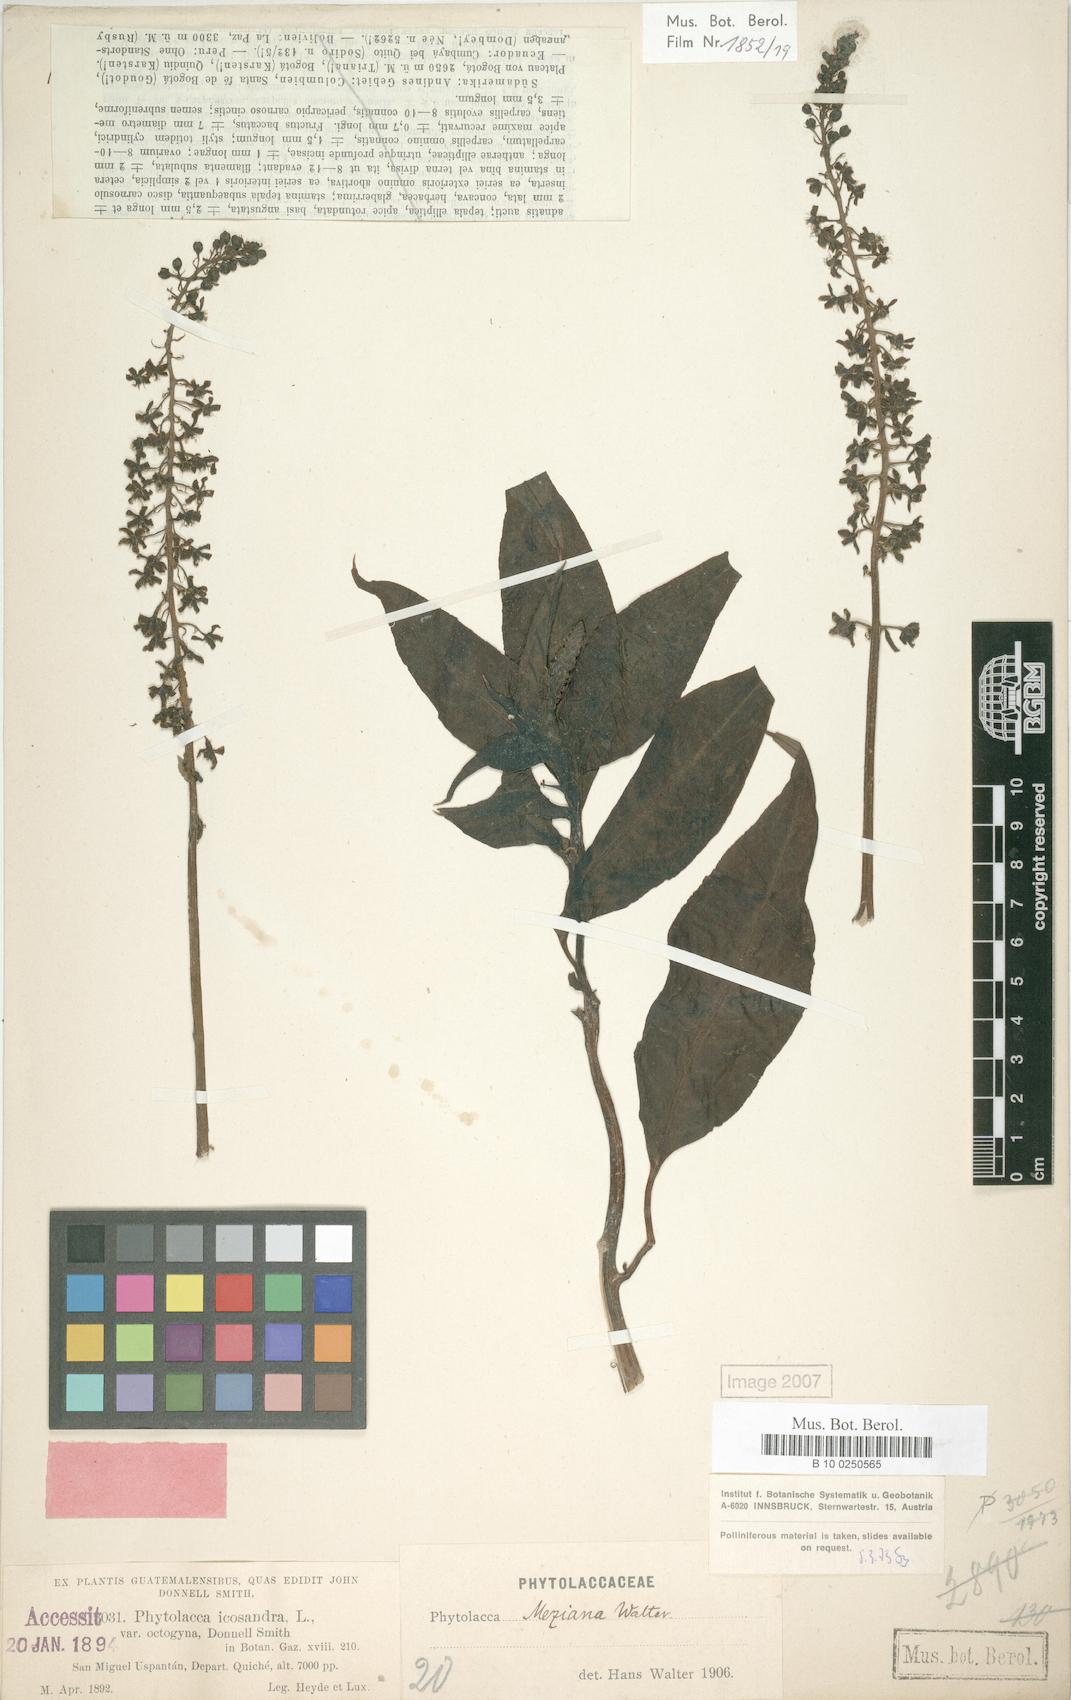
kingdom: Plantae
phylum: Tracheophyta
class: Magnoliopsida
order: Caryophyllales
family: Phytolaccaceae
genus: Phytolacca
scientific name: Phytolacca meziana
